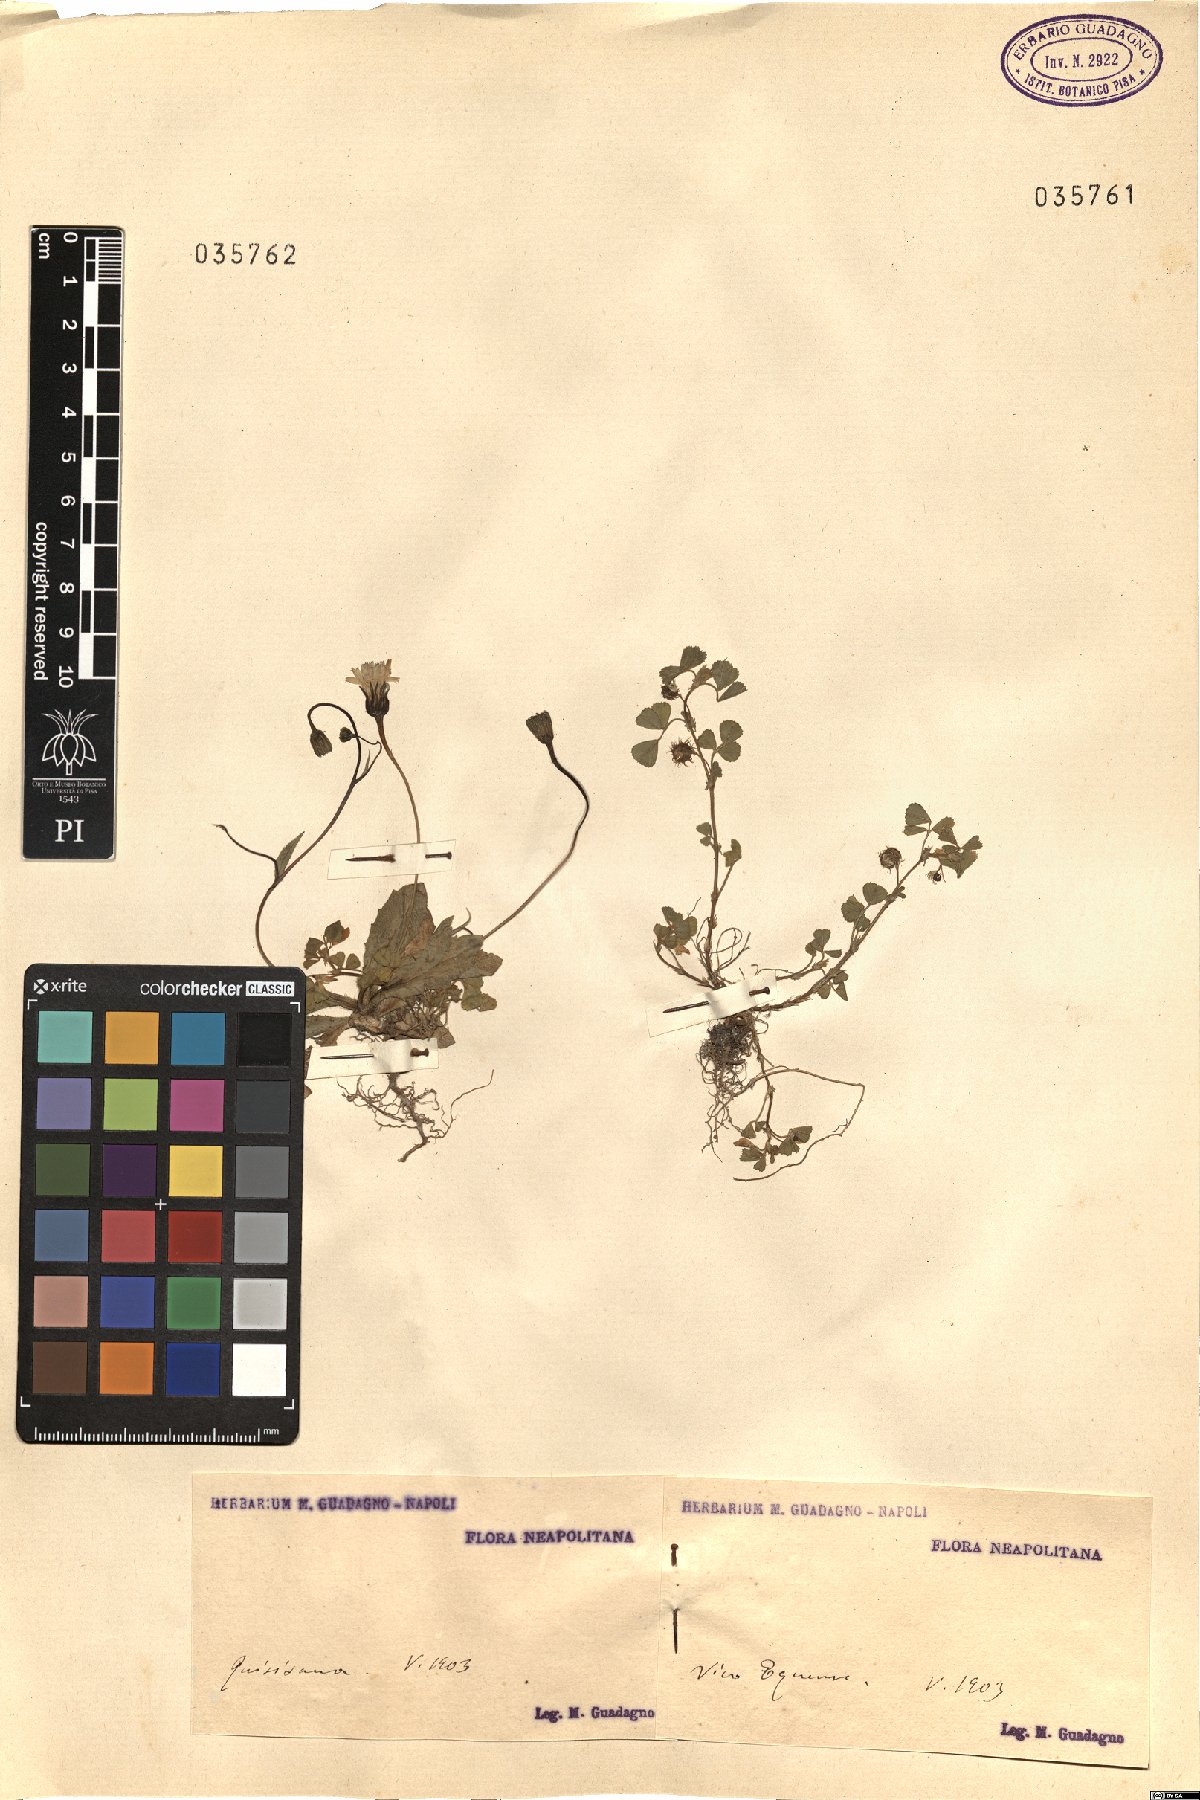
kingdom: Plantae
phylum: Tracheophyta
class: Magnoliopsida
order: Asterales
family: Asteraceae
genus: Crepis
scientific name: Crepis
